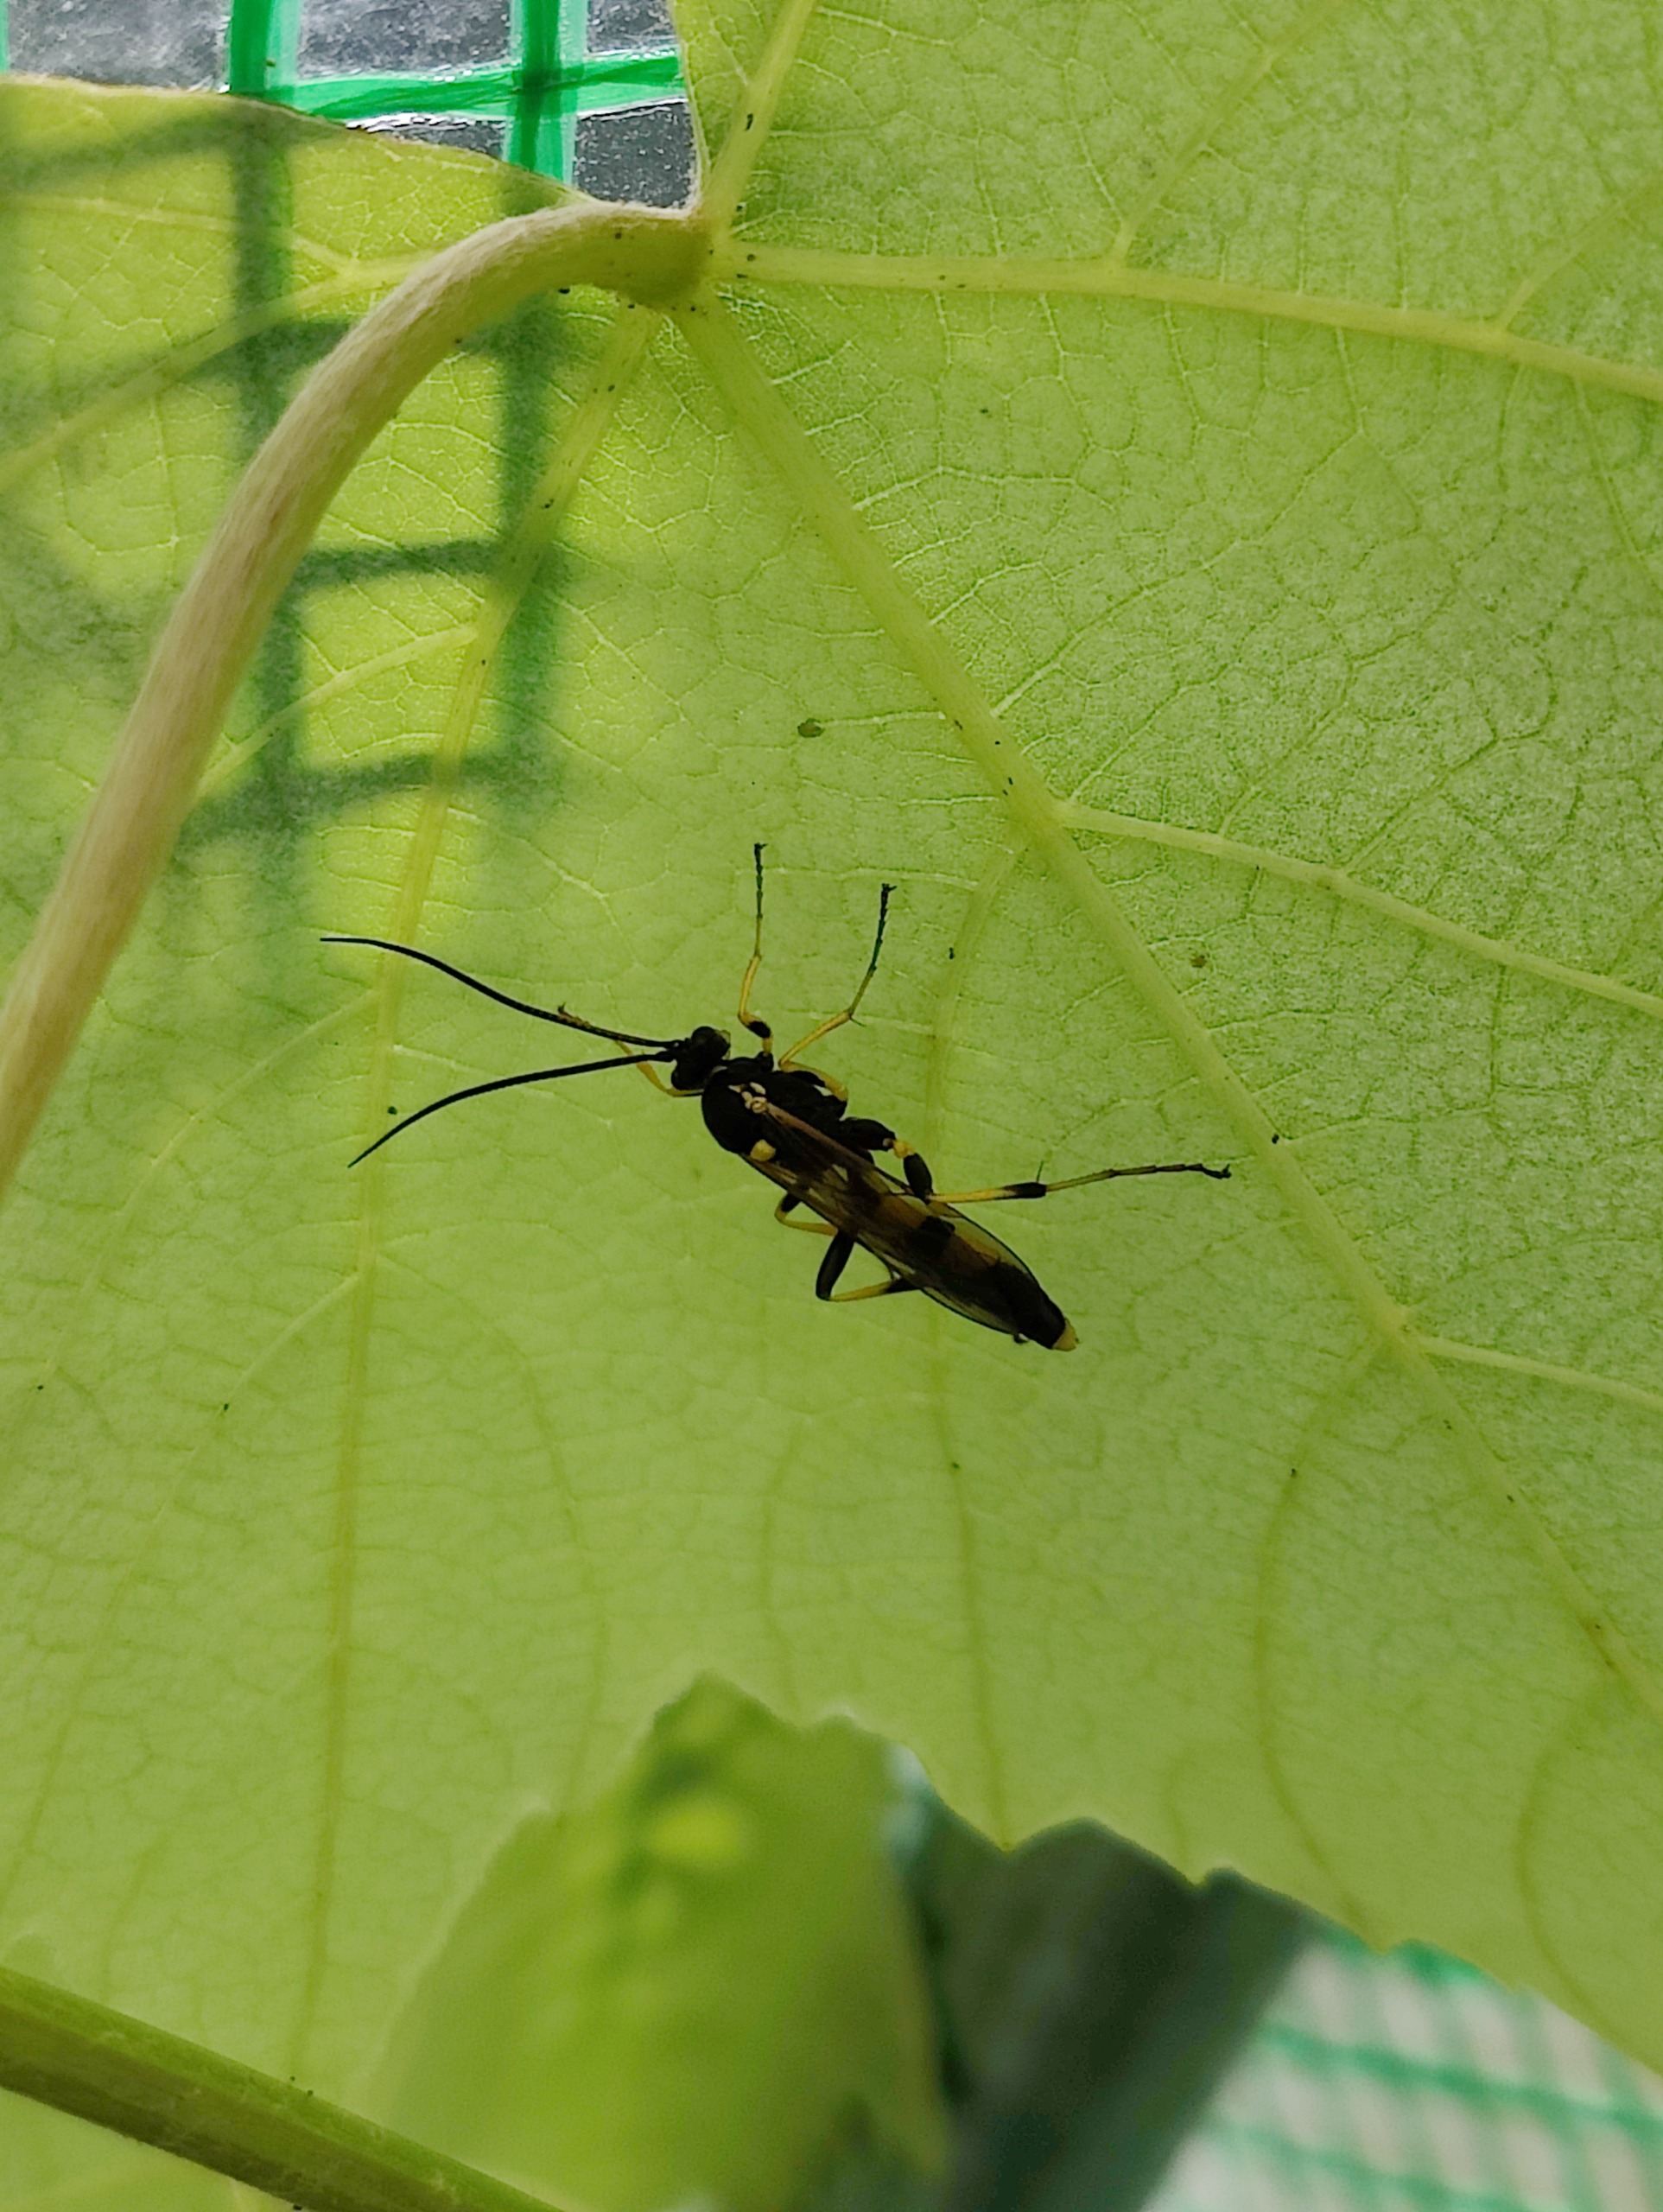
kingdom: Animalia
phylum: Arthropoda
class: Insecta
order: Hymenoptera
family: Ichneumonidae
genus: Amblyteles
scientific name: Amblyteles armatorius
